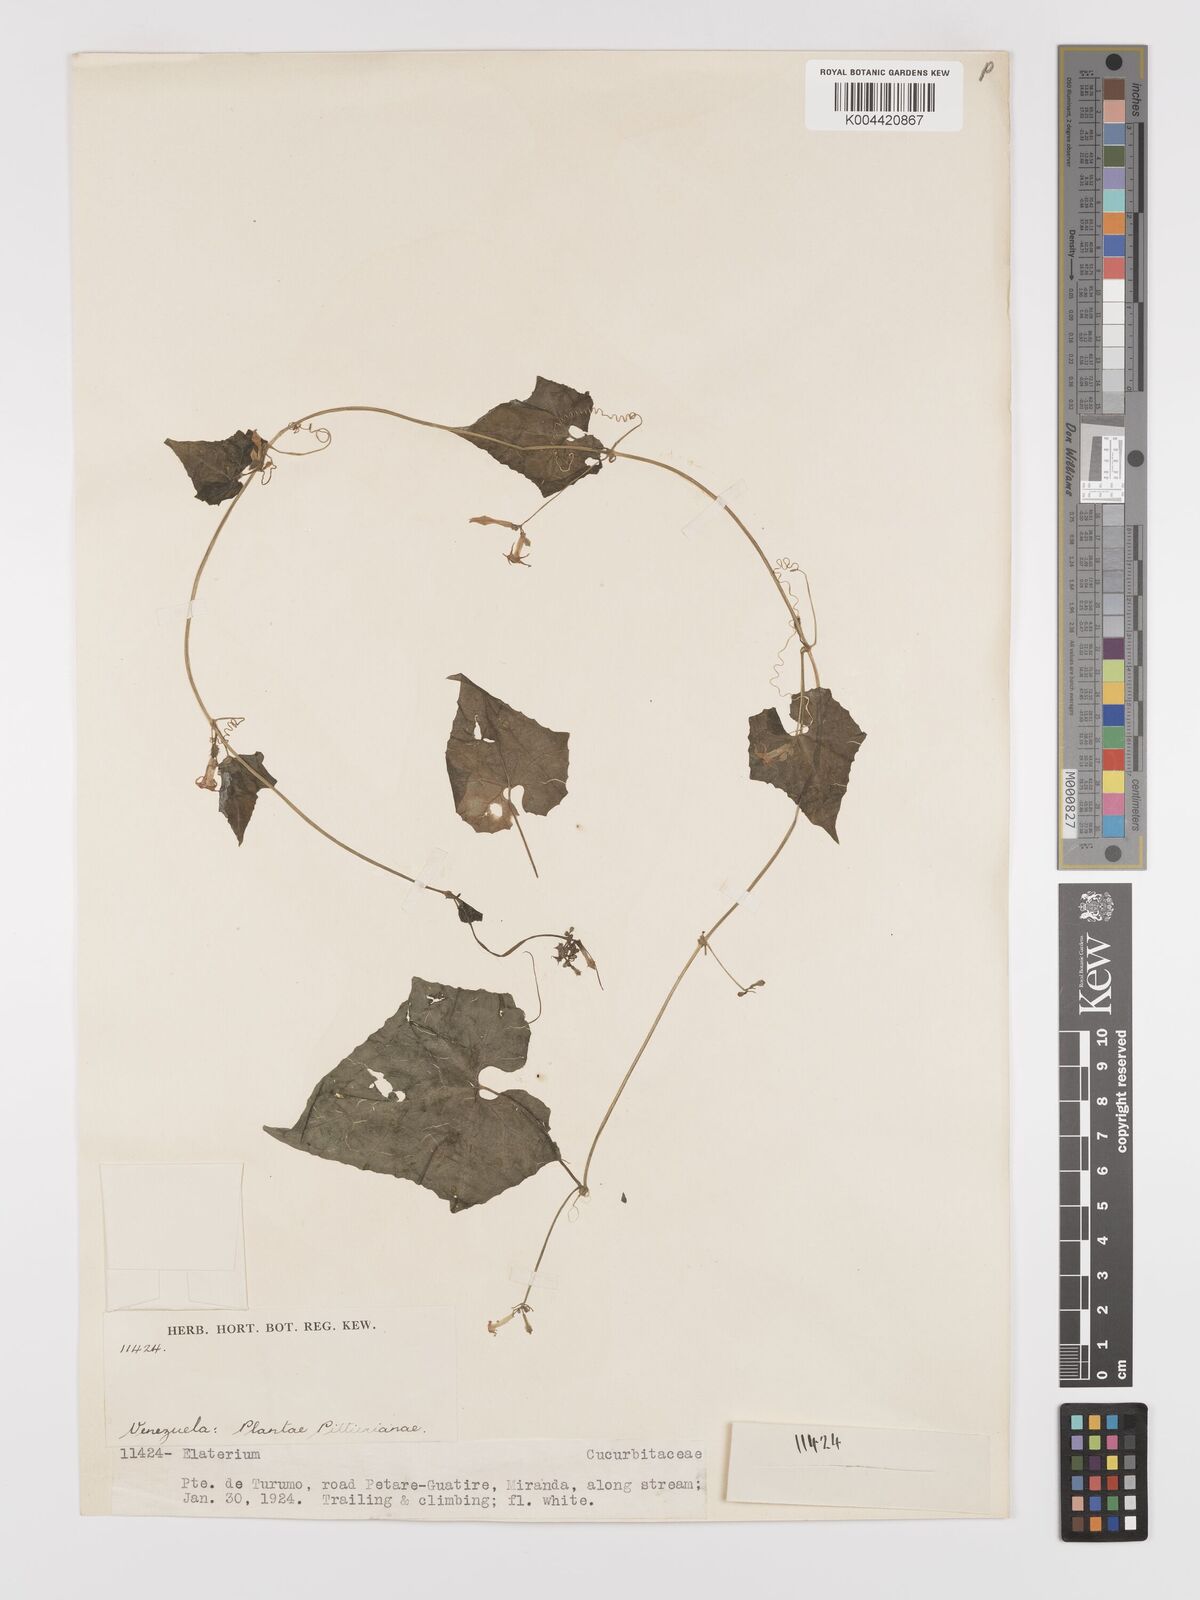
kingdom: Plantae
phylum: Tracheophyta
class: Magnoliopsida
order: Cucurbitales
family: Cucurbitaceae
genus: Cyclanthera
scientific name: Cyclanthera carthagenensis
